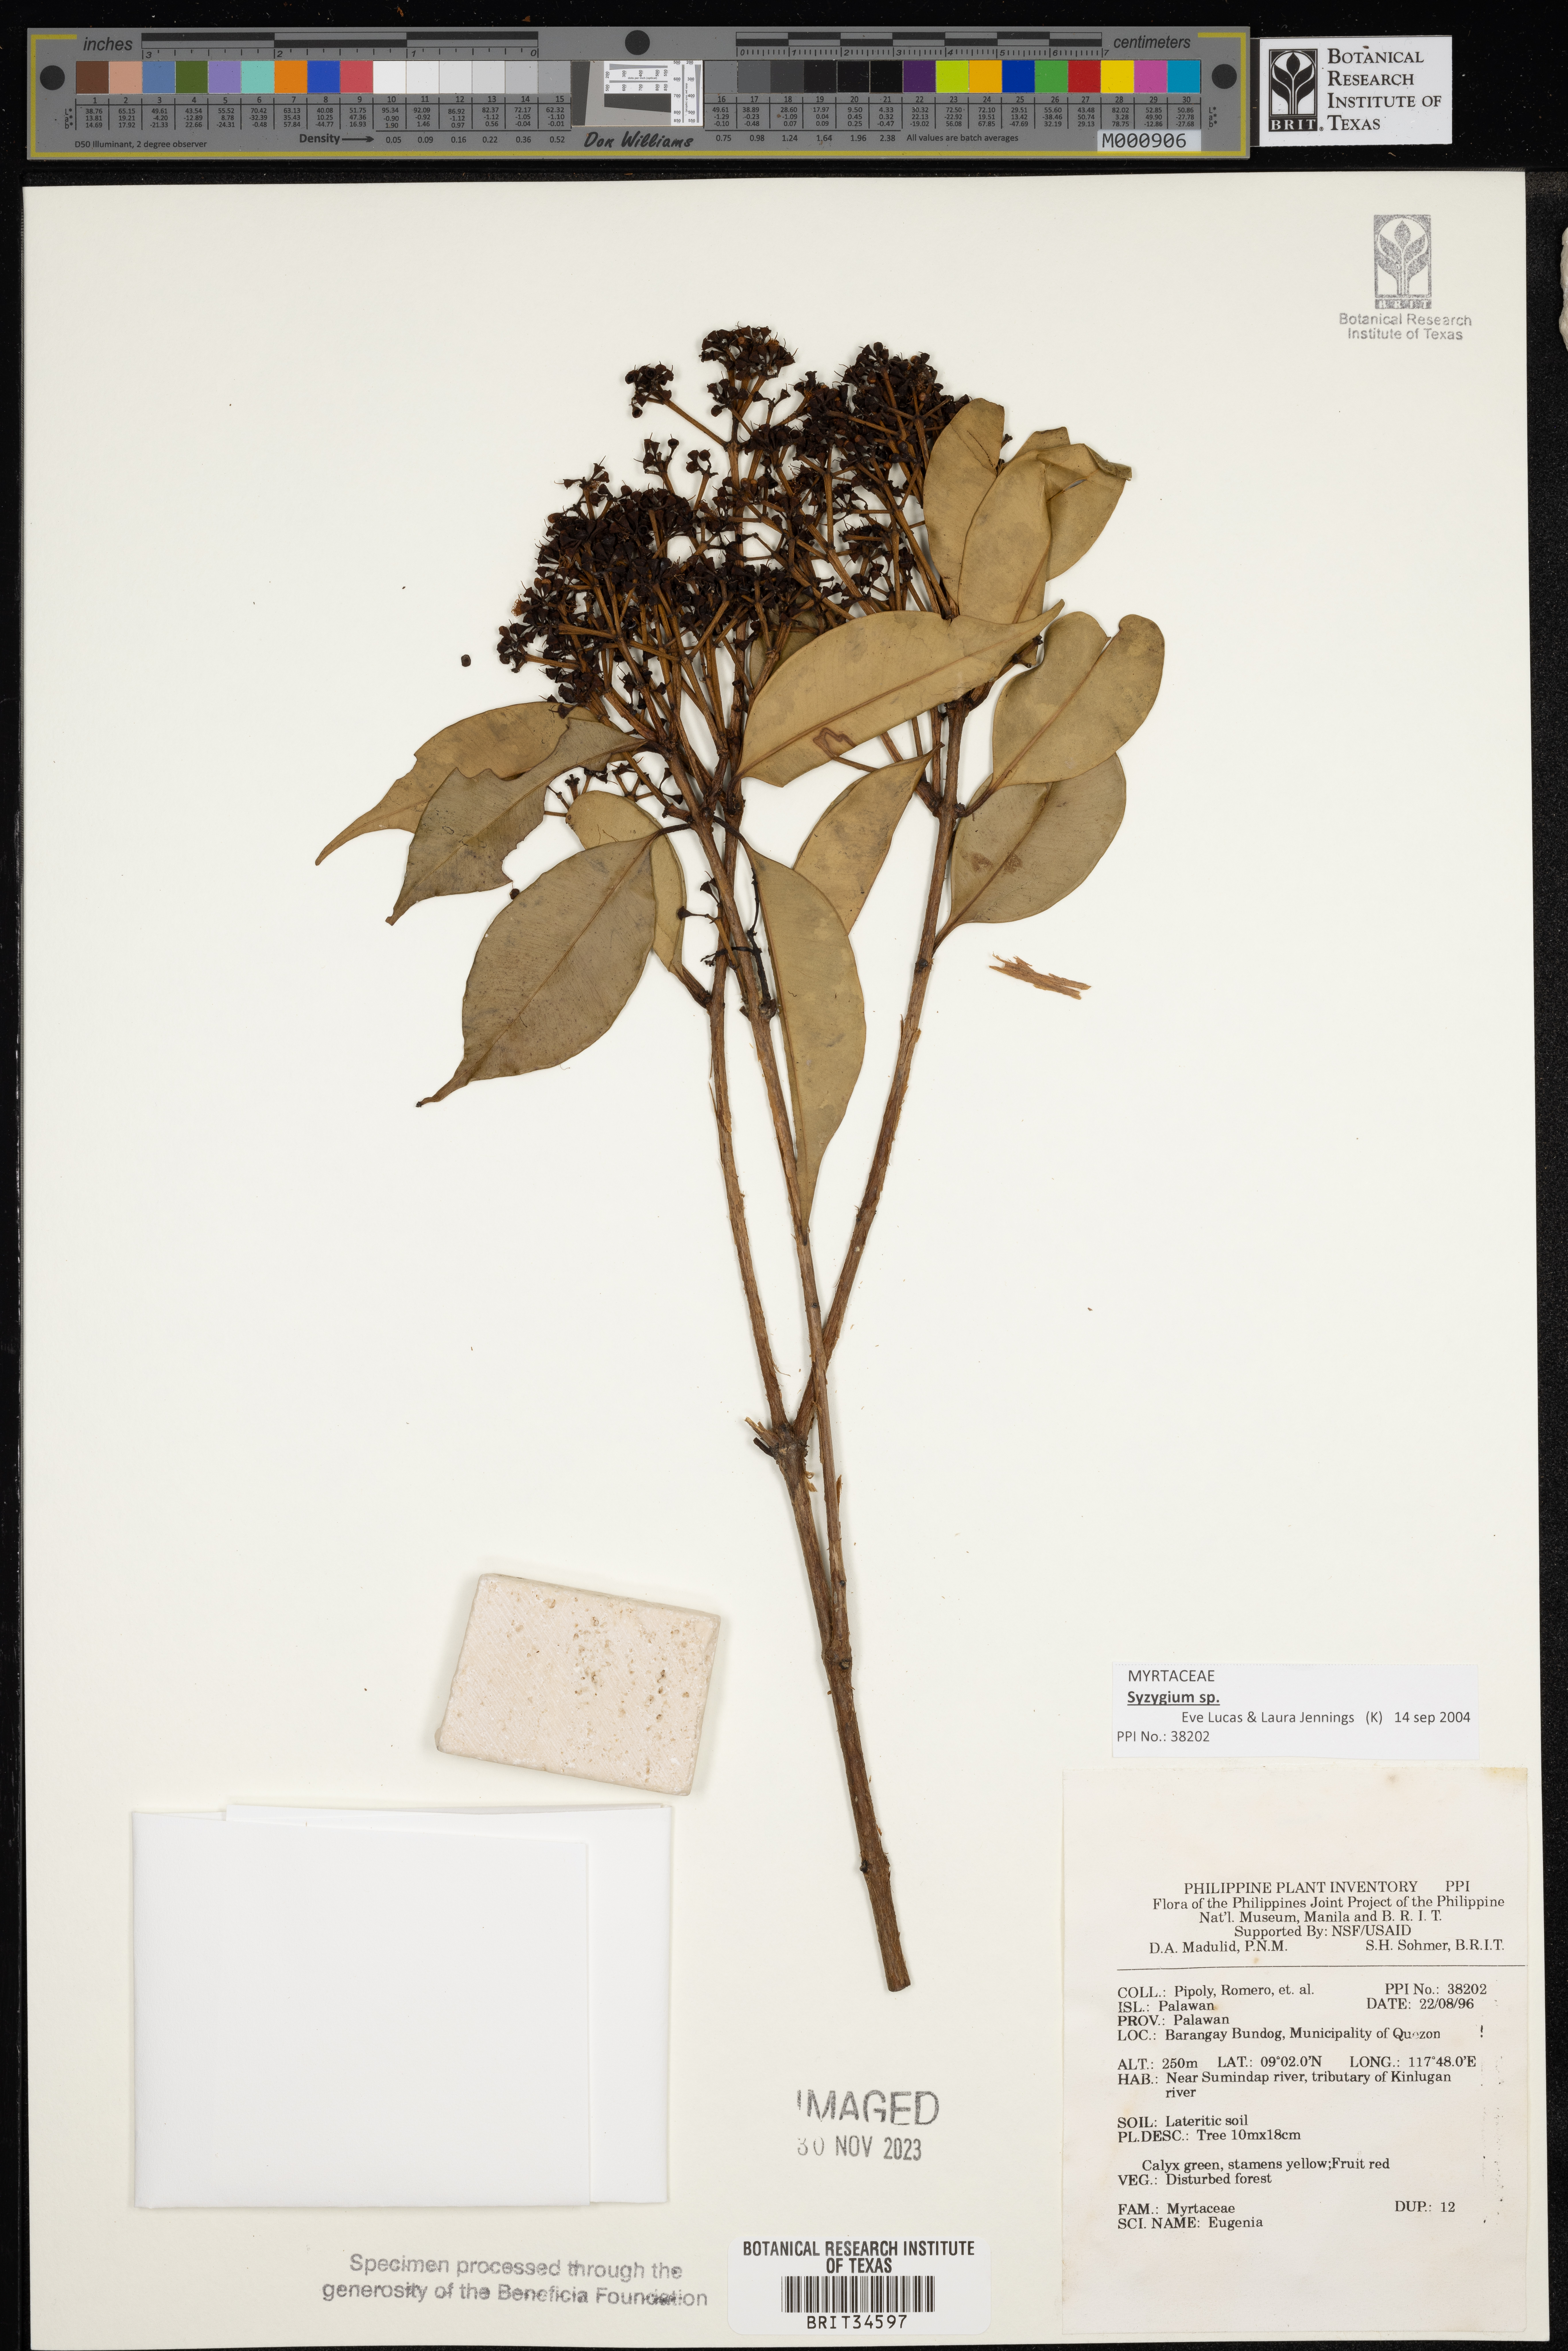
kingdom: Plantae
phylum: Tracheophyta
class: Magnoliopsida
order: Myrtales
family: Myrtaceae
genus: Eugenia
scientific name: Eugenia
